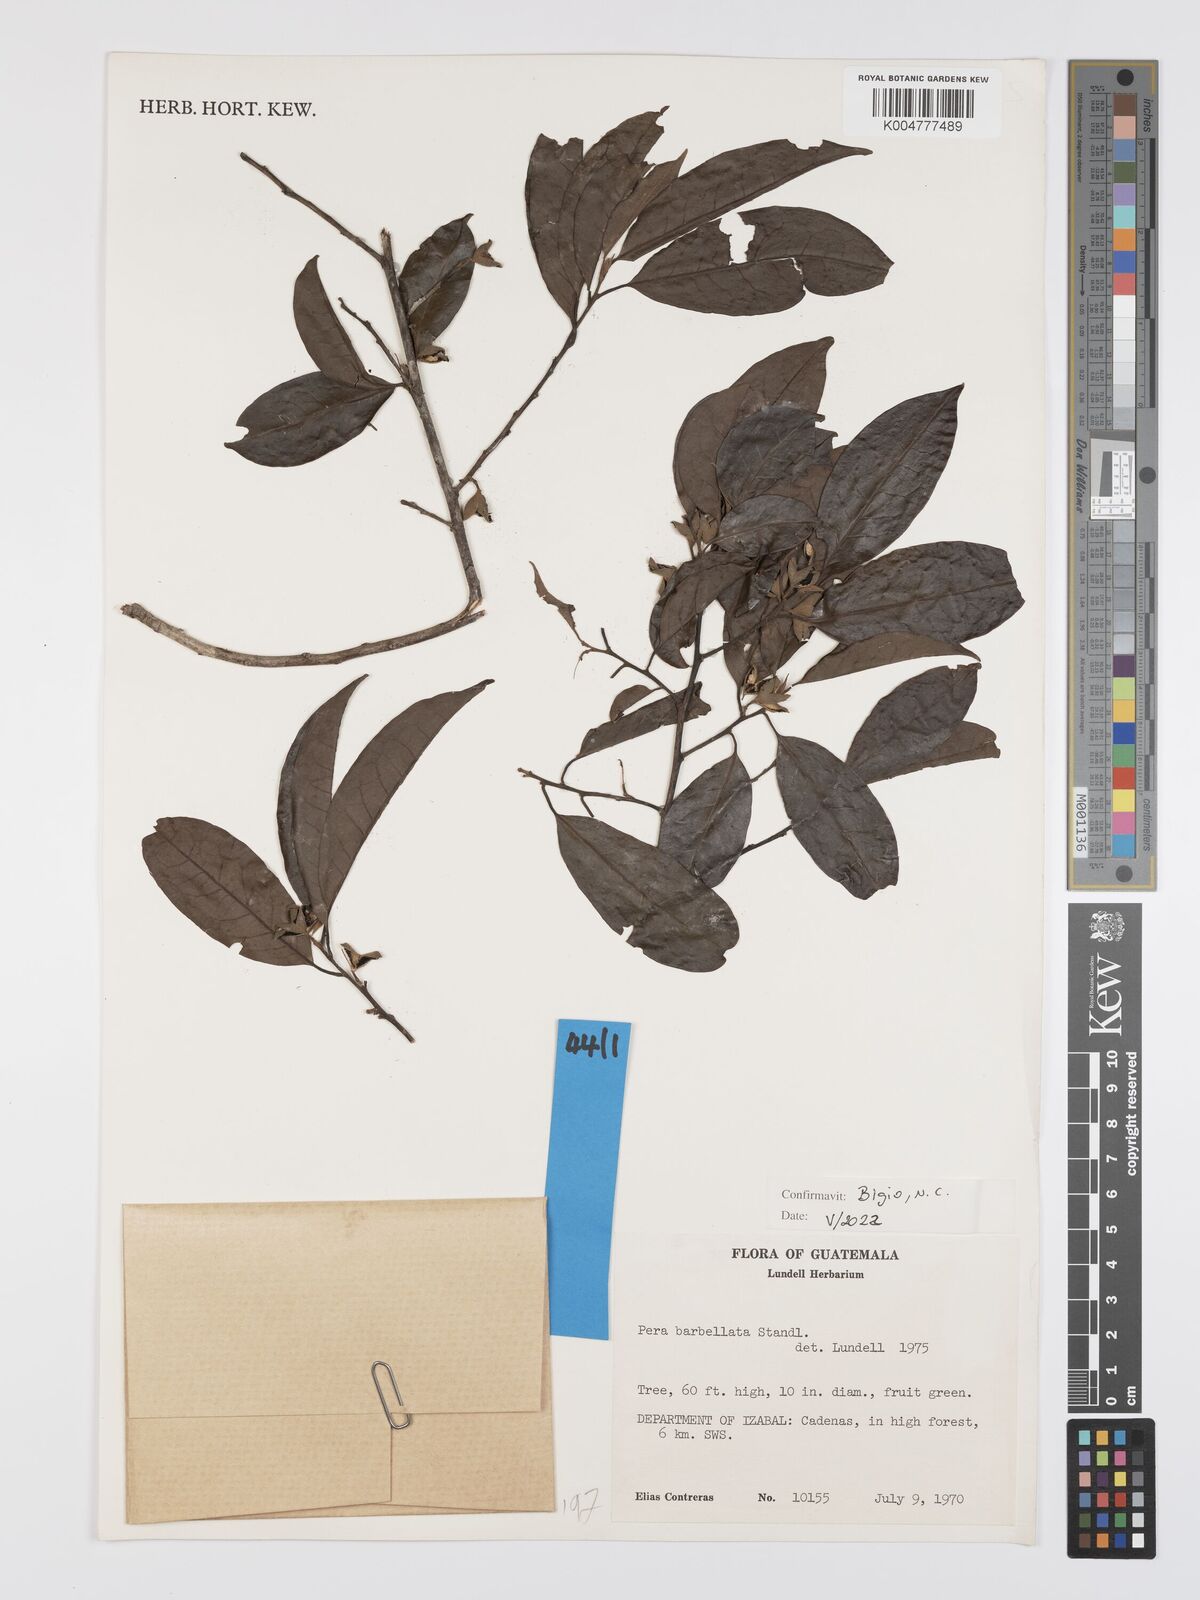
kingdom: Plantae
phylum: Tracheophyta
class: Magnoliopsida
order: Malpighiales
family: Peraceae
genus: Pera
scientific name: Pera barbellata
